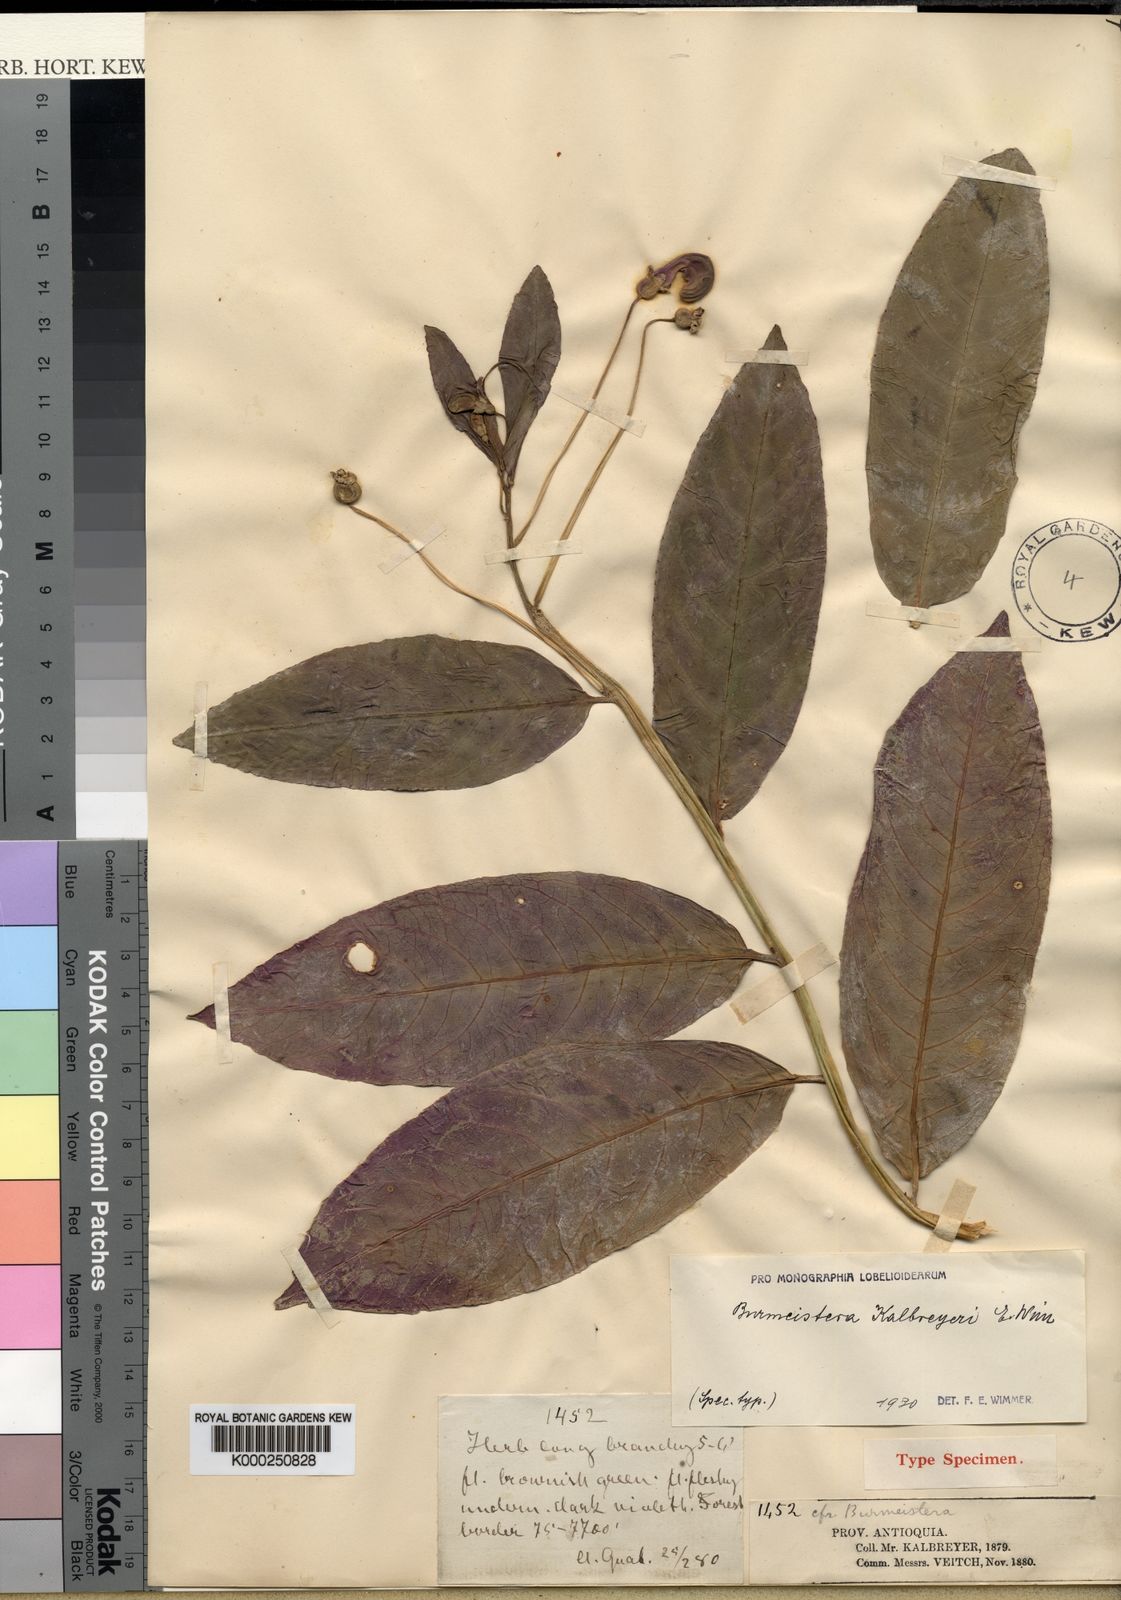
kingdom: Plantae
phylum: Tracheophyta
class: Magnoliopsida
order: Asterales
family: Campanulaceae
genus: Burmeistera
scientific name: Burmeistera kalbreyeri
